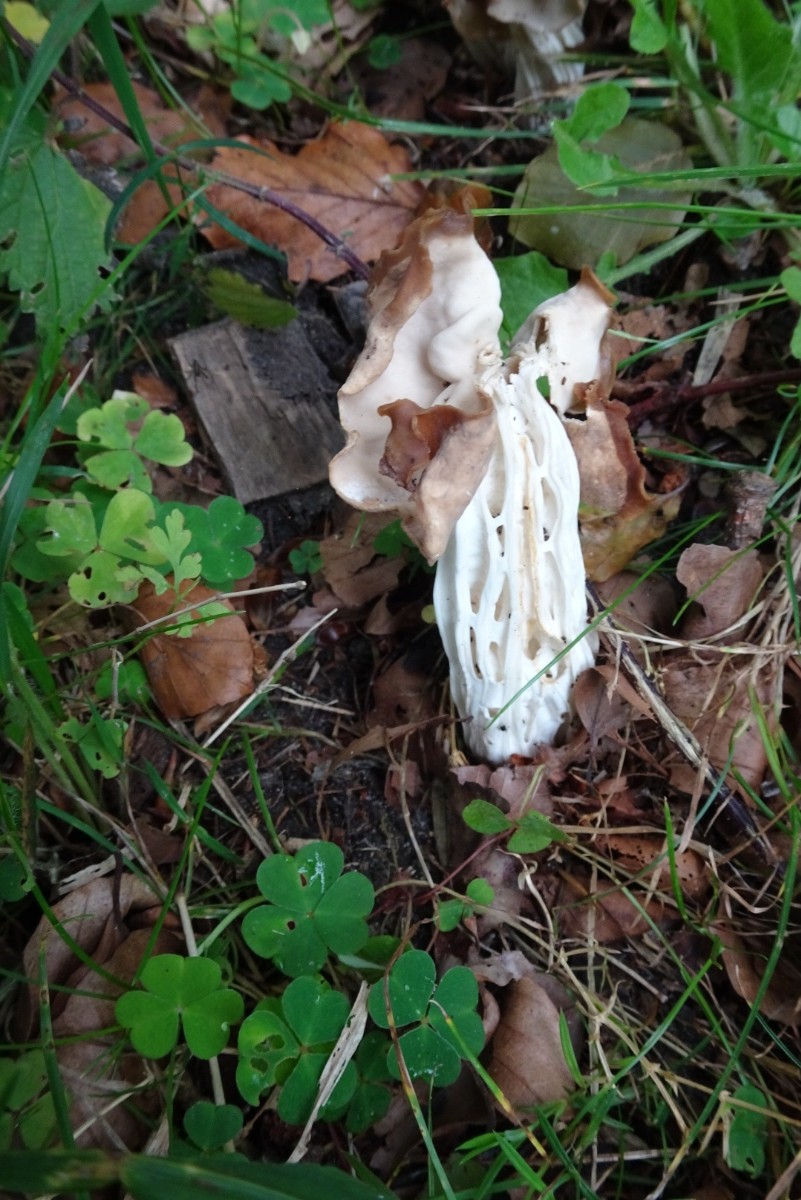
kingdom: Fungi
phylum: Ascomycota
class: Pezizomycetes
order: Pezizales
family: Helvellaceae
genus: Helvella
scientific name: Helvella crispa
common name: kruset foldhat
